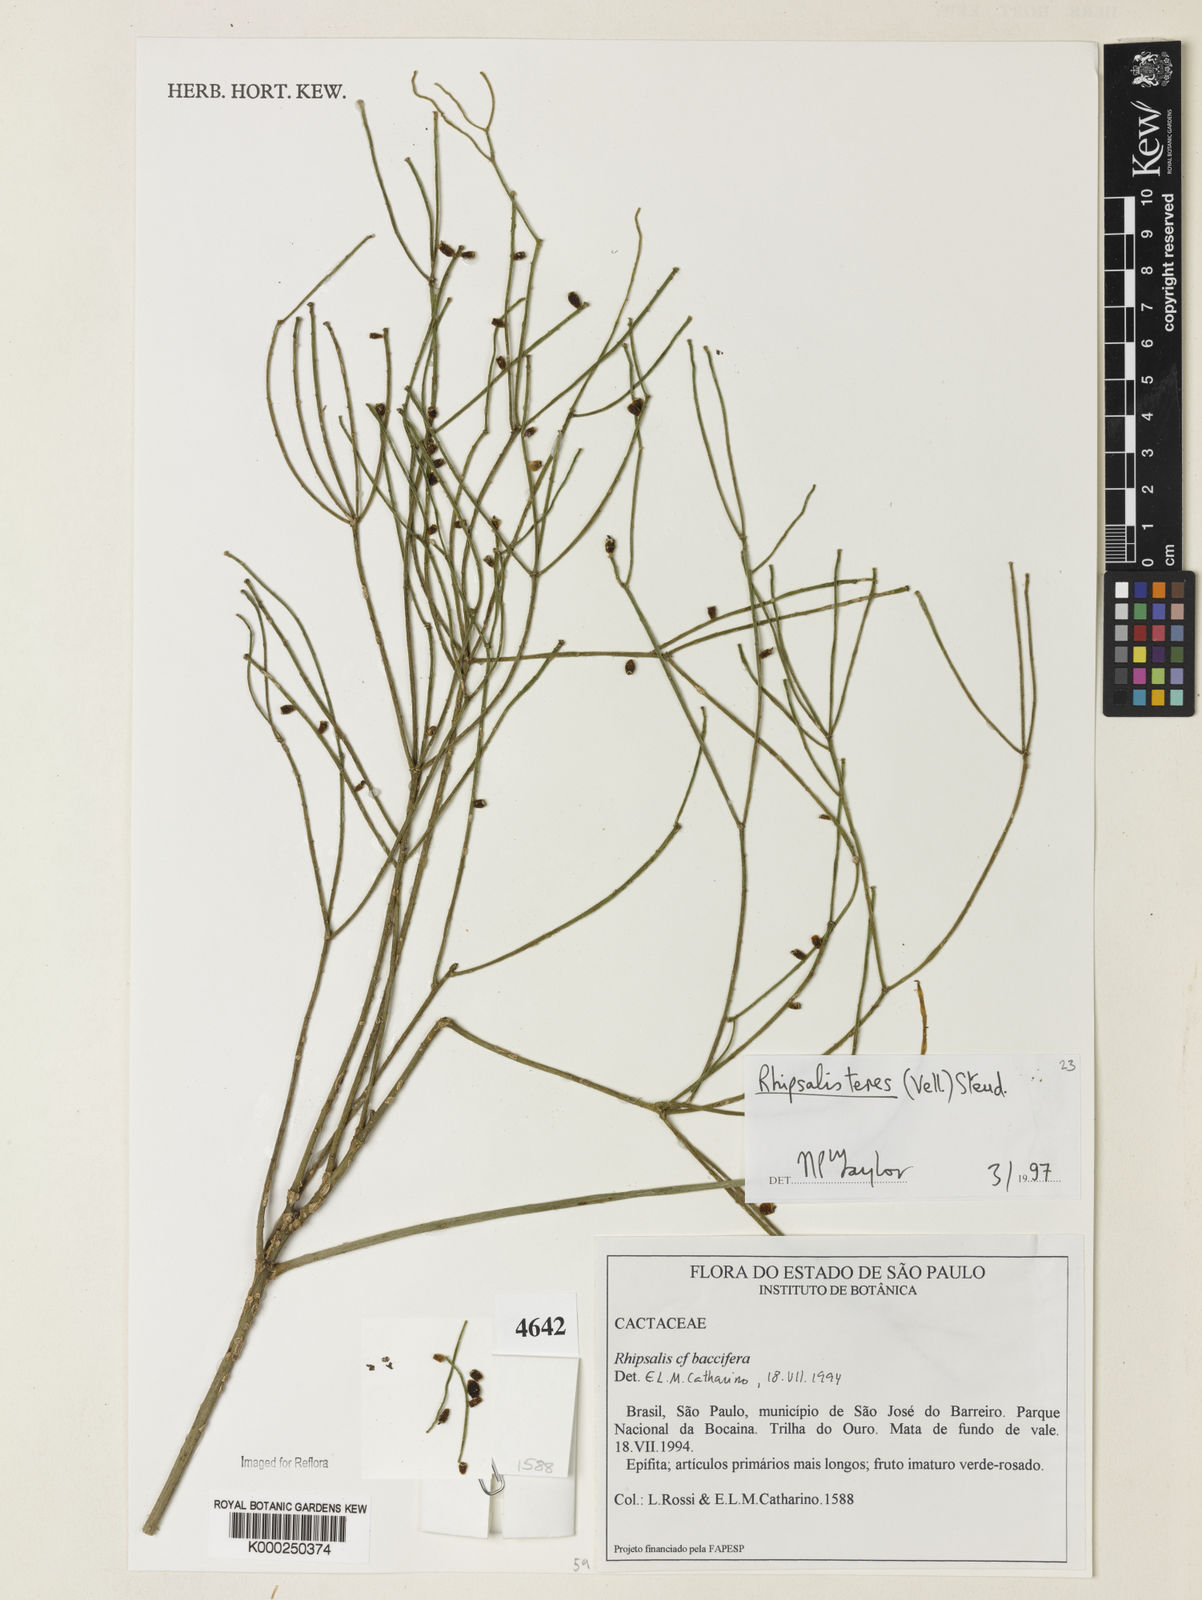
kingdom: Plantae
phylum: Tracheophyta
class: Magnoliopsida
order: Caryophyllales
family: Cactaceae
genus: Rhipsalis
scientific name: Rhipsalis teres
